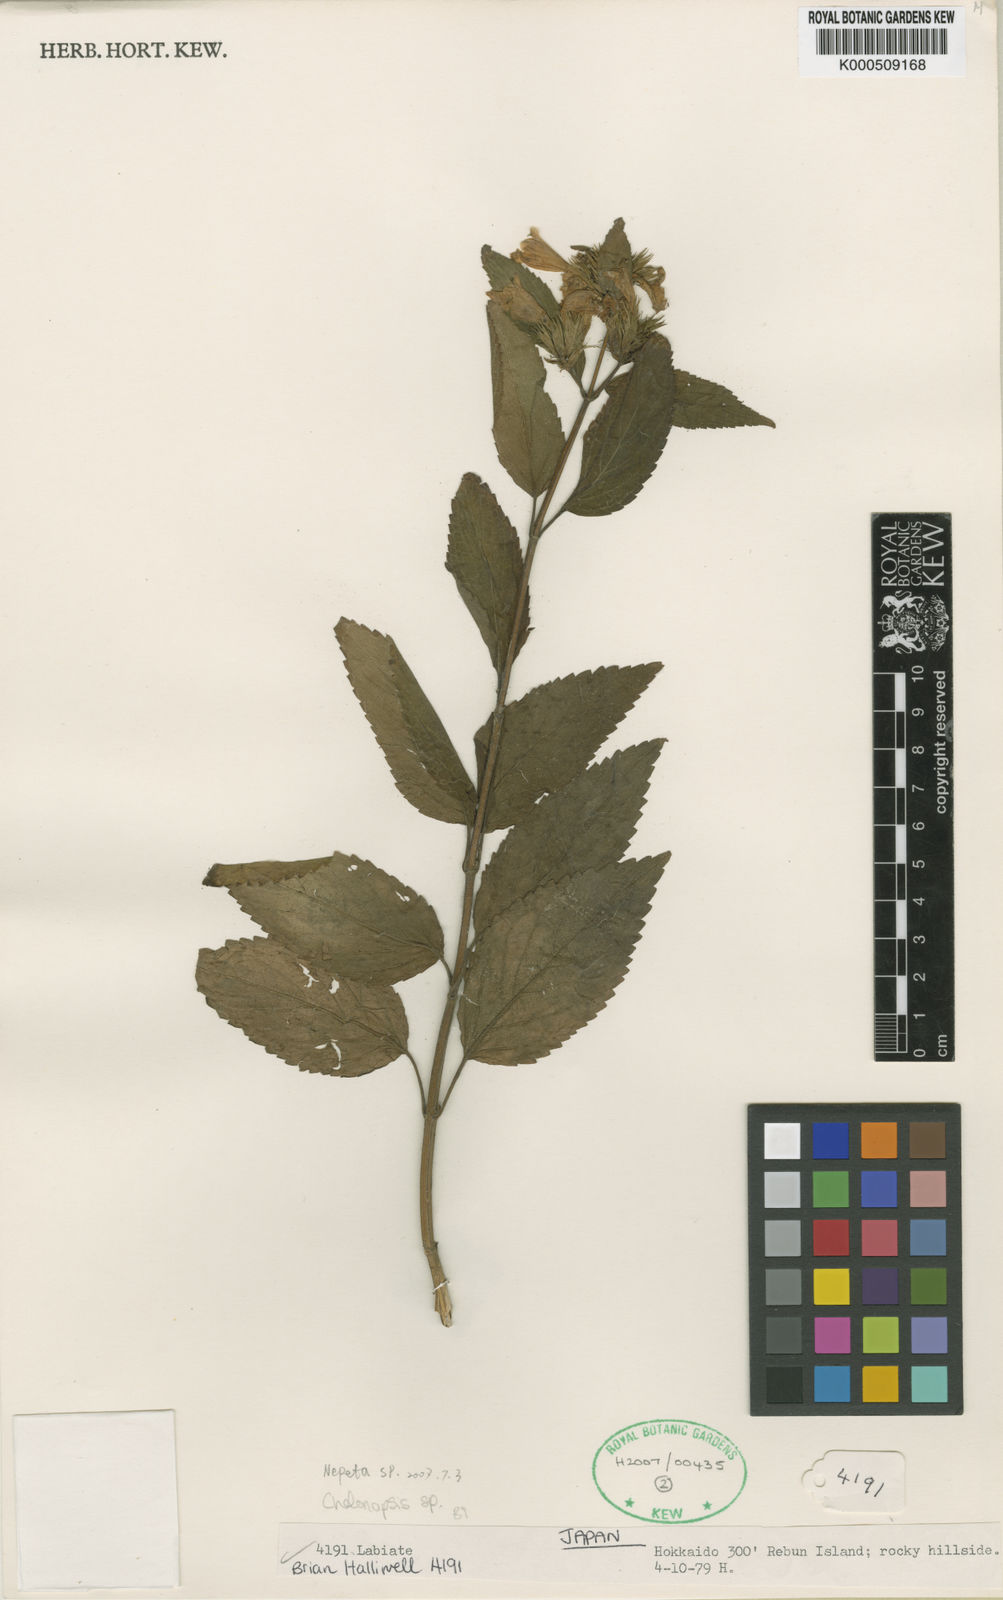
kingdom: Plantae
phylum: Tracheophyta
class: Magnoliopsida
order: Lamiales
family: Lamiaceae
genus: Chelonopsis
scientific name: Chelonopsis
